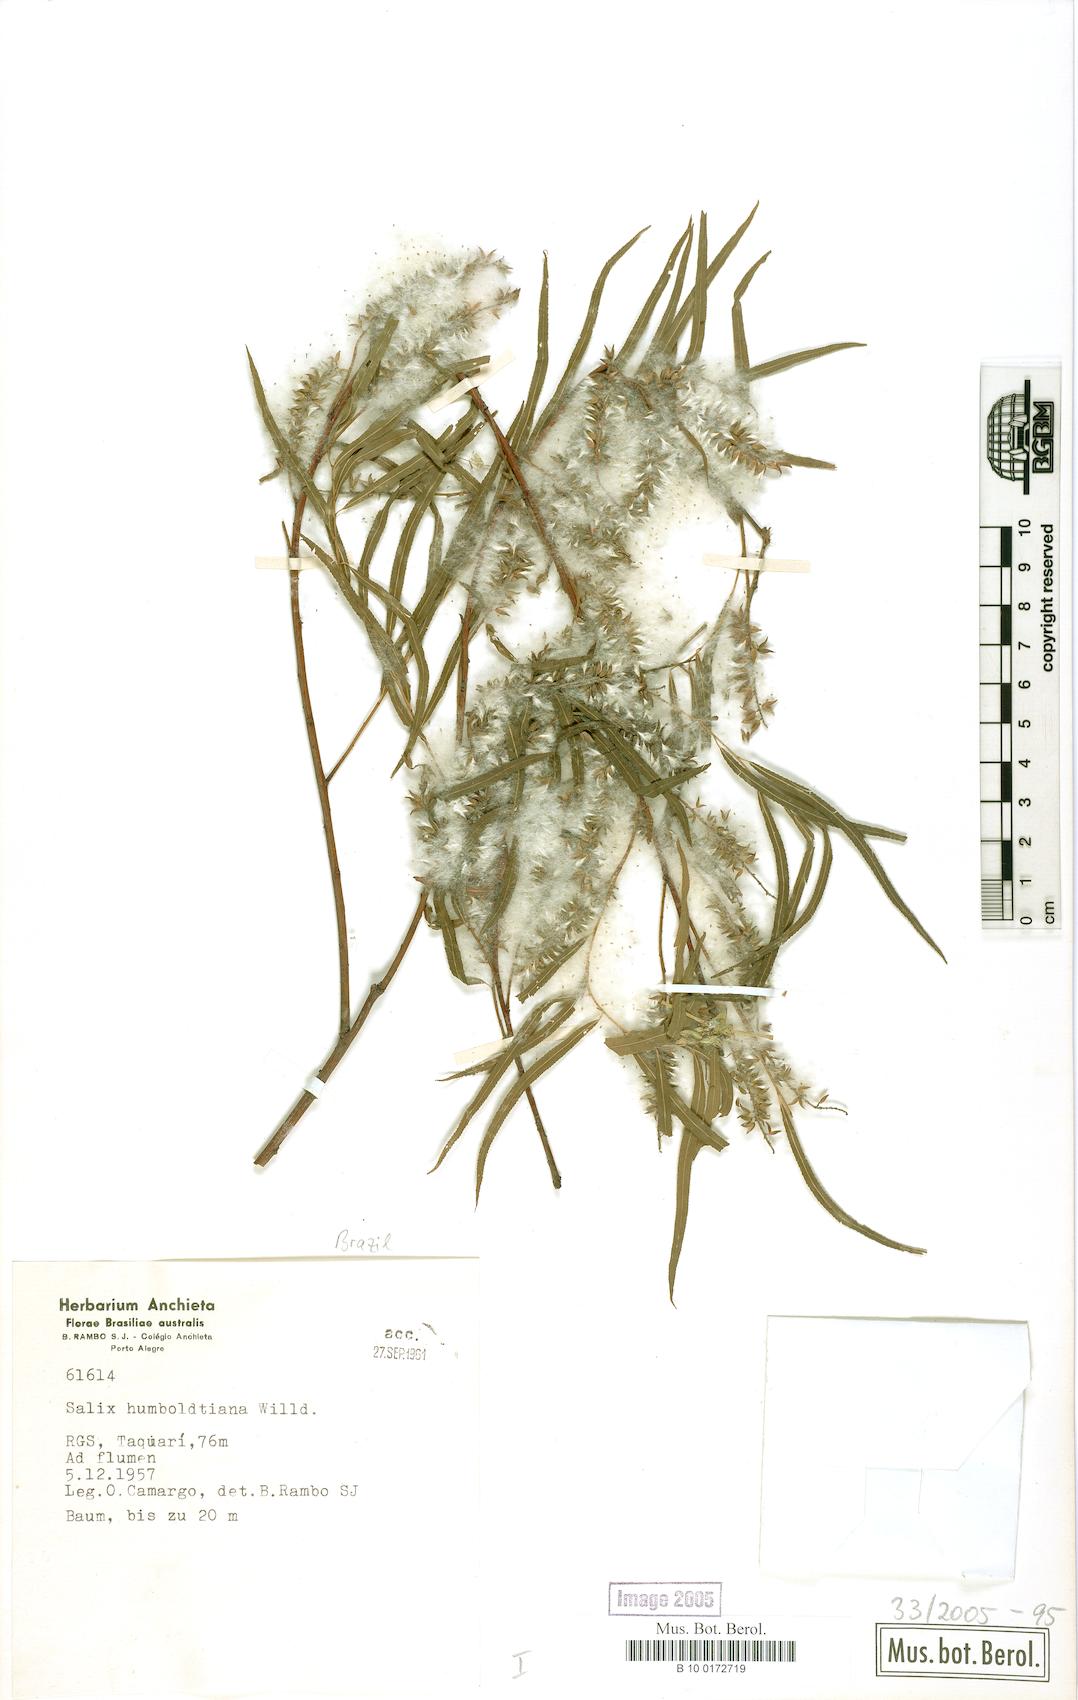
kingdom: Plantae
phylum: Tracheophyta
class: Magnoliopsida
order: Malpighiales
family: Salicaceae
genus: Salix
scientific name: Salix humboldtiana
